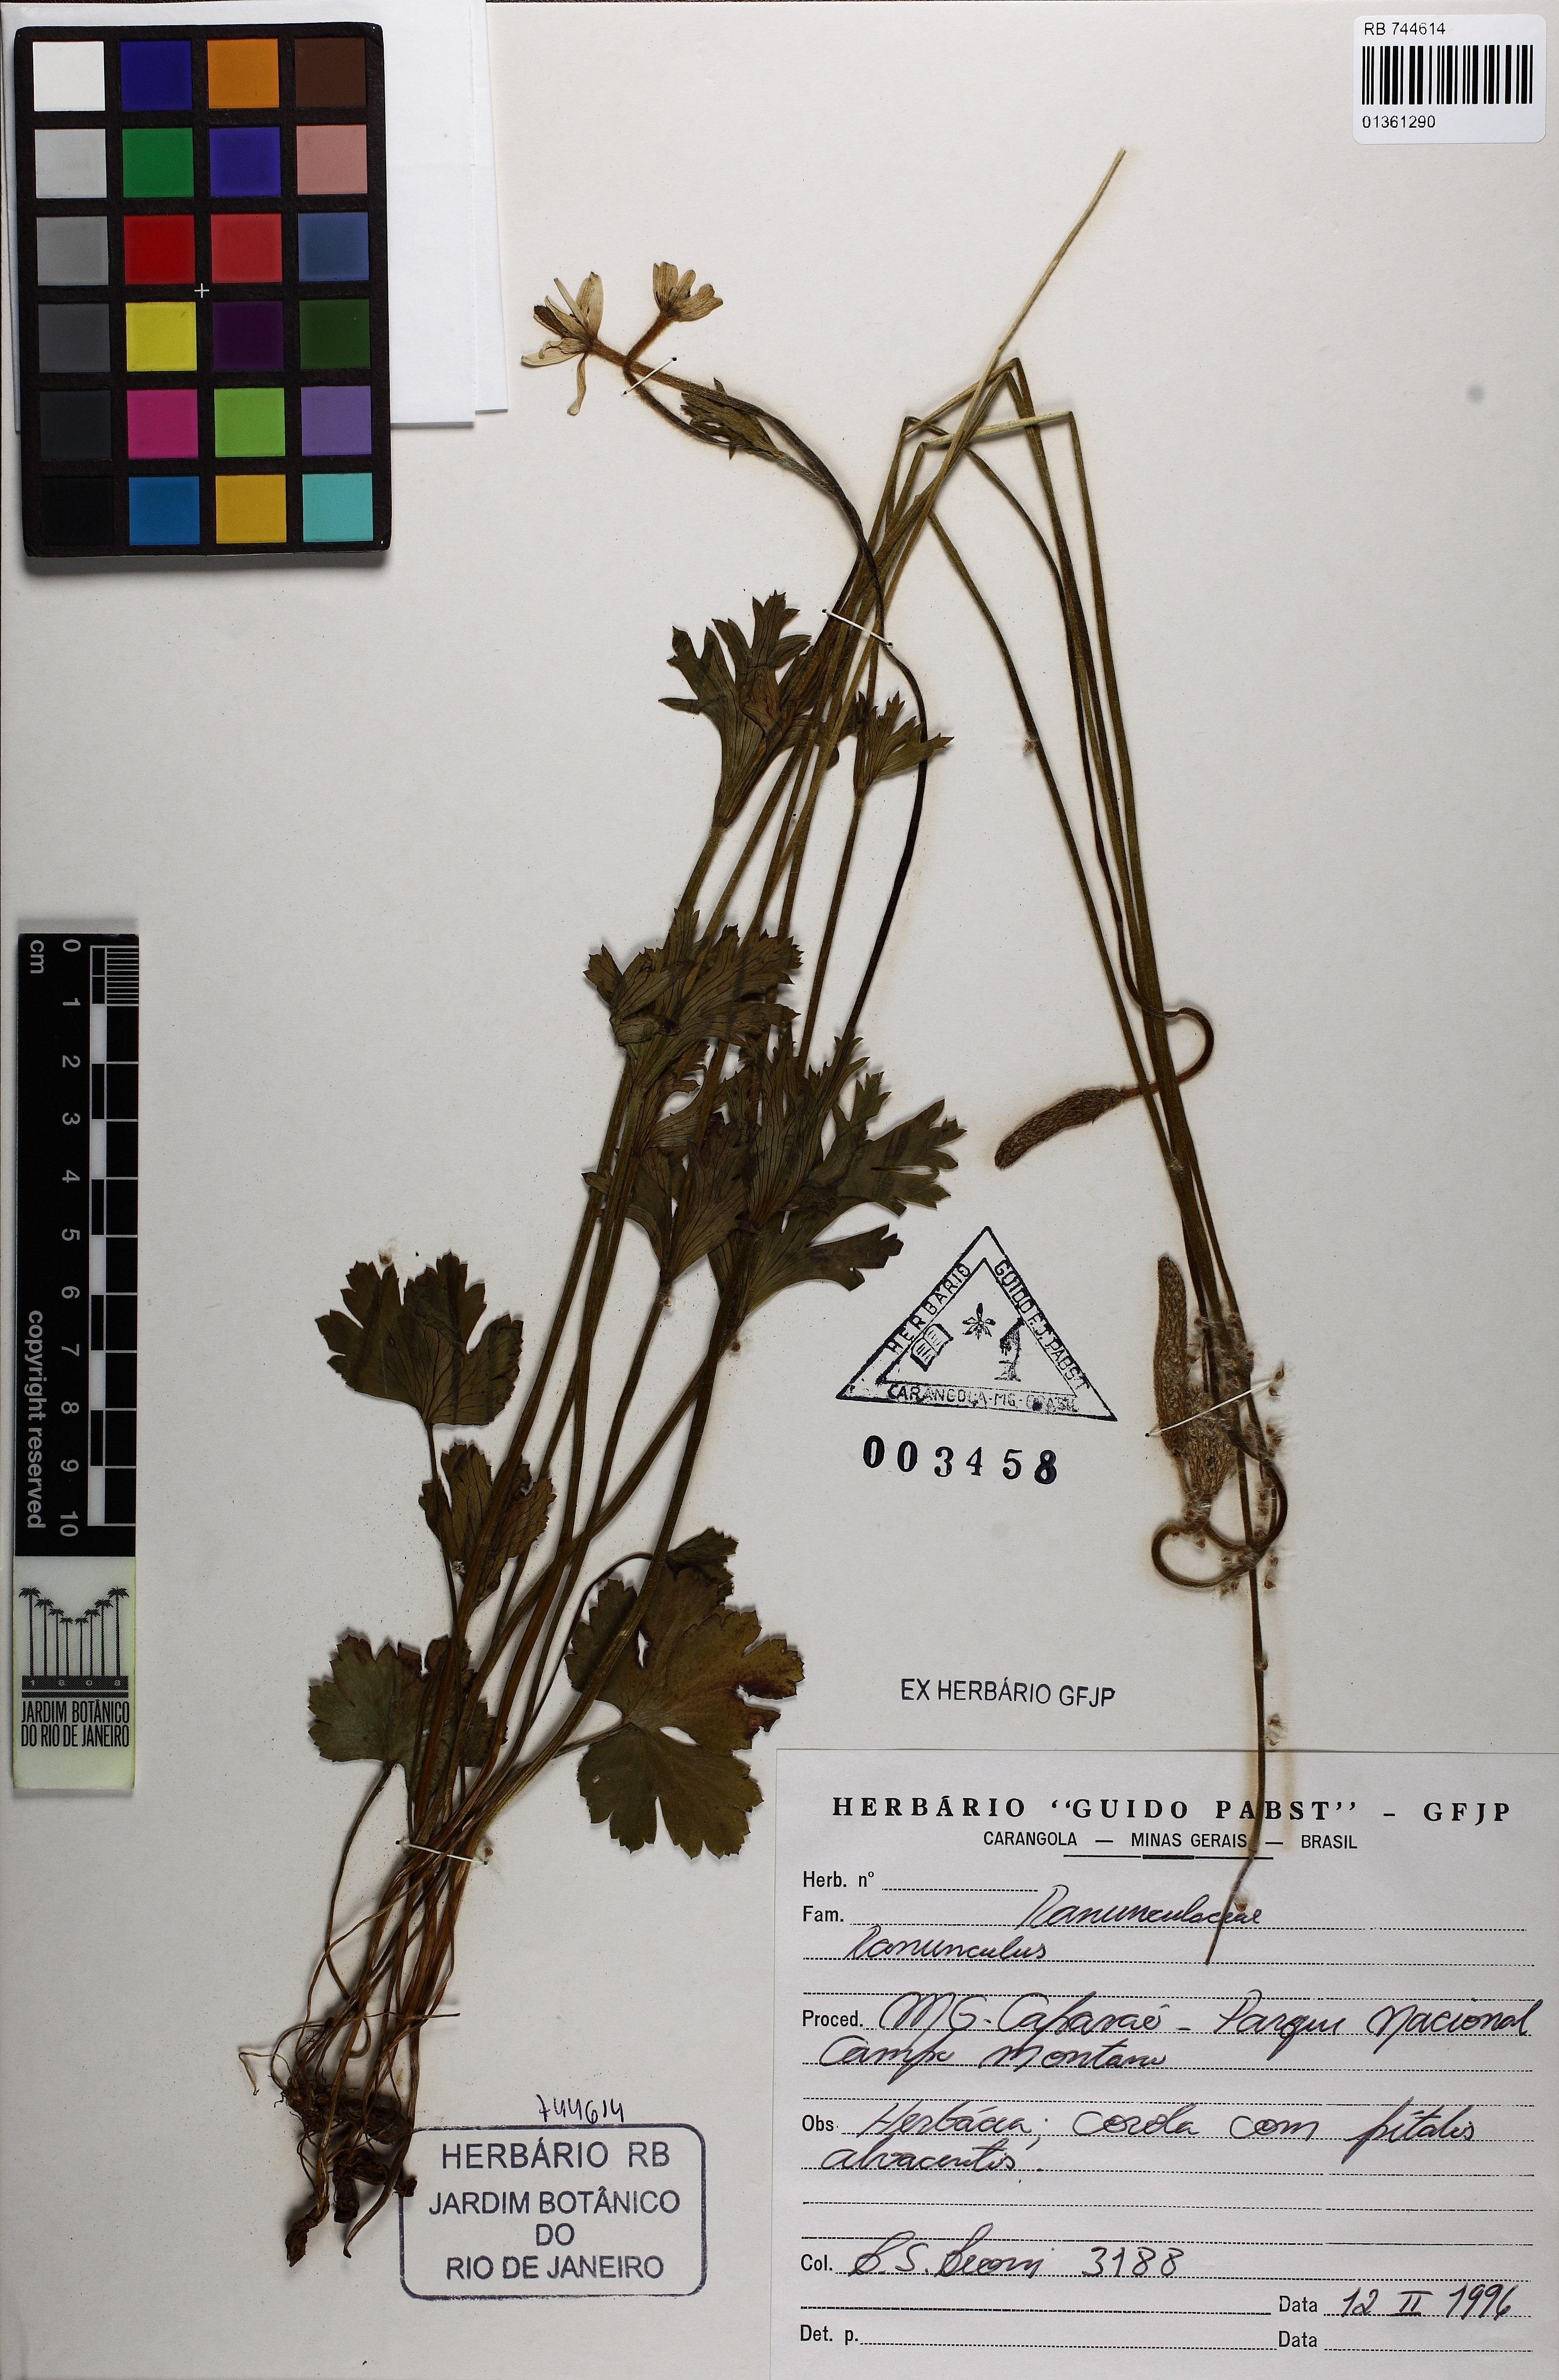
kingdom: Plantae
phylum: Tracheophyta
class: Magnoliopsida
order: Ranunculales
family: Ranunculaceae
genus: Ranunculus
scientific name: Ranunculus
